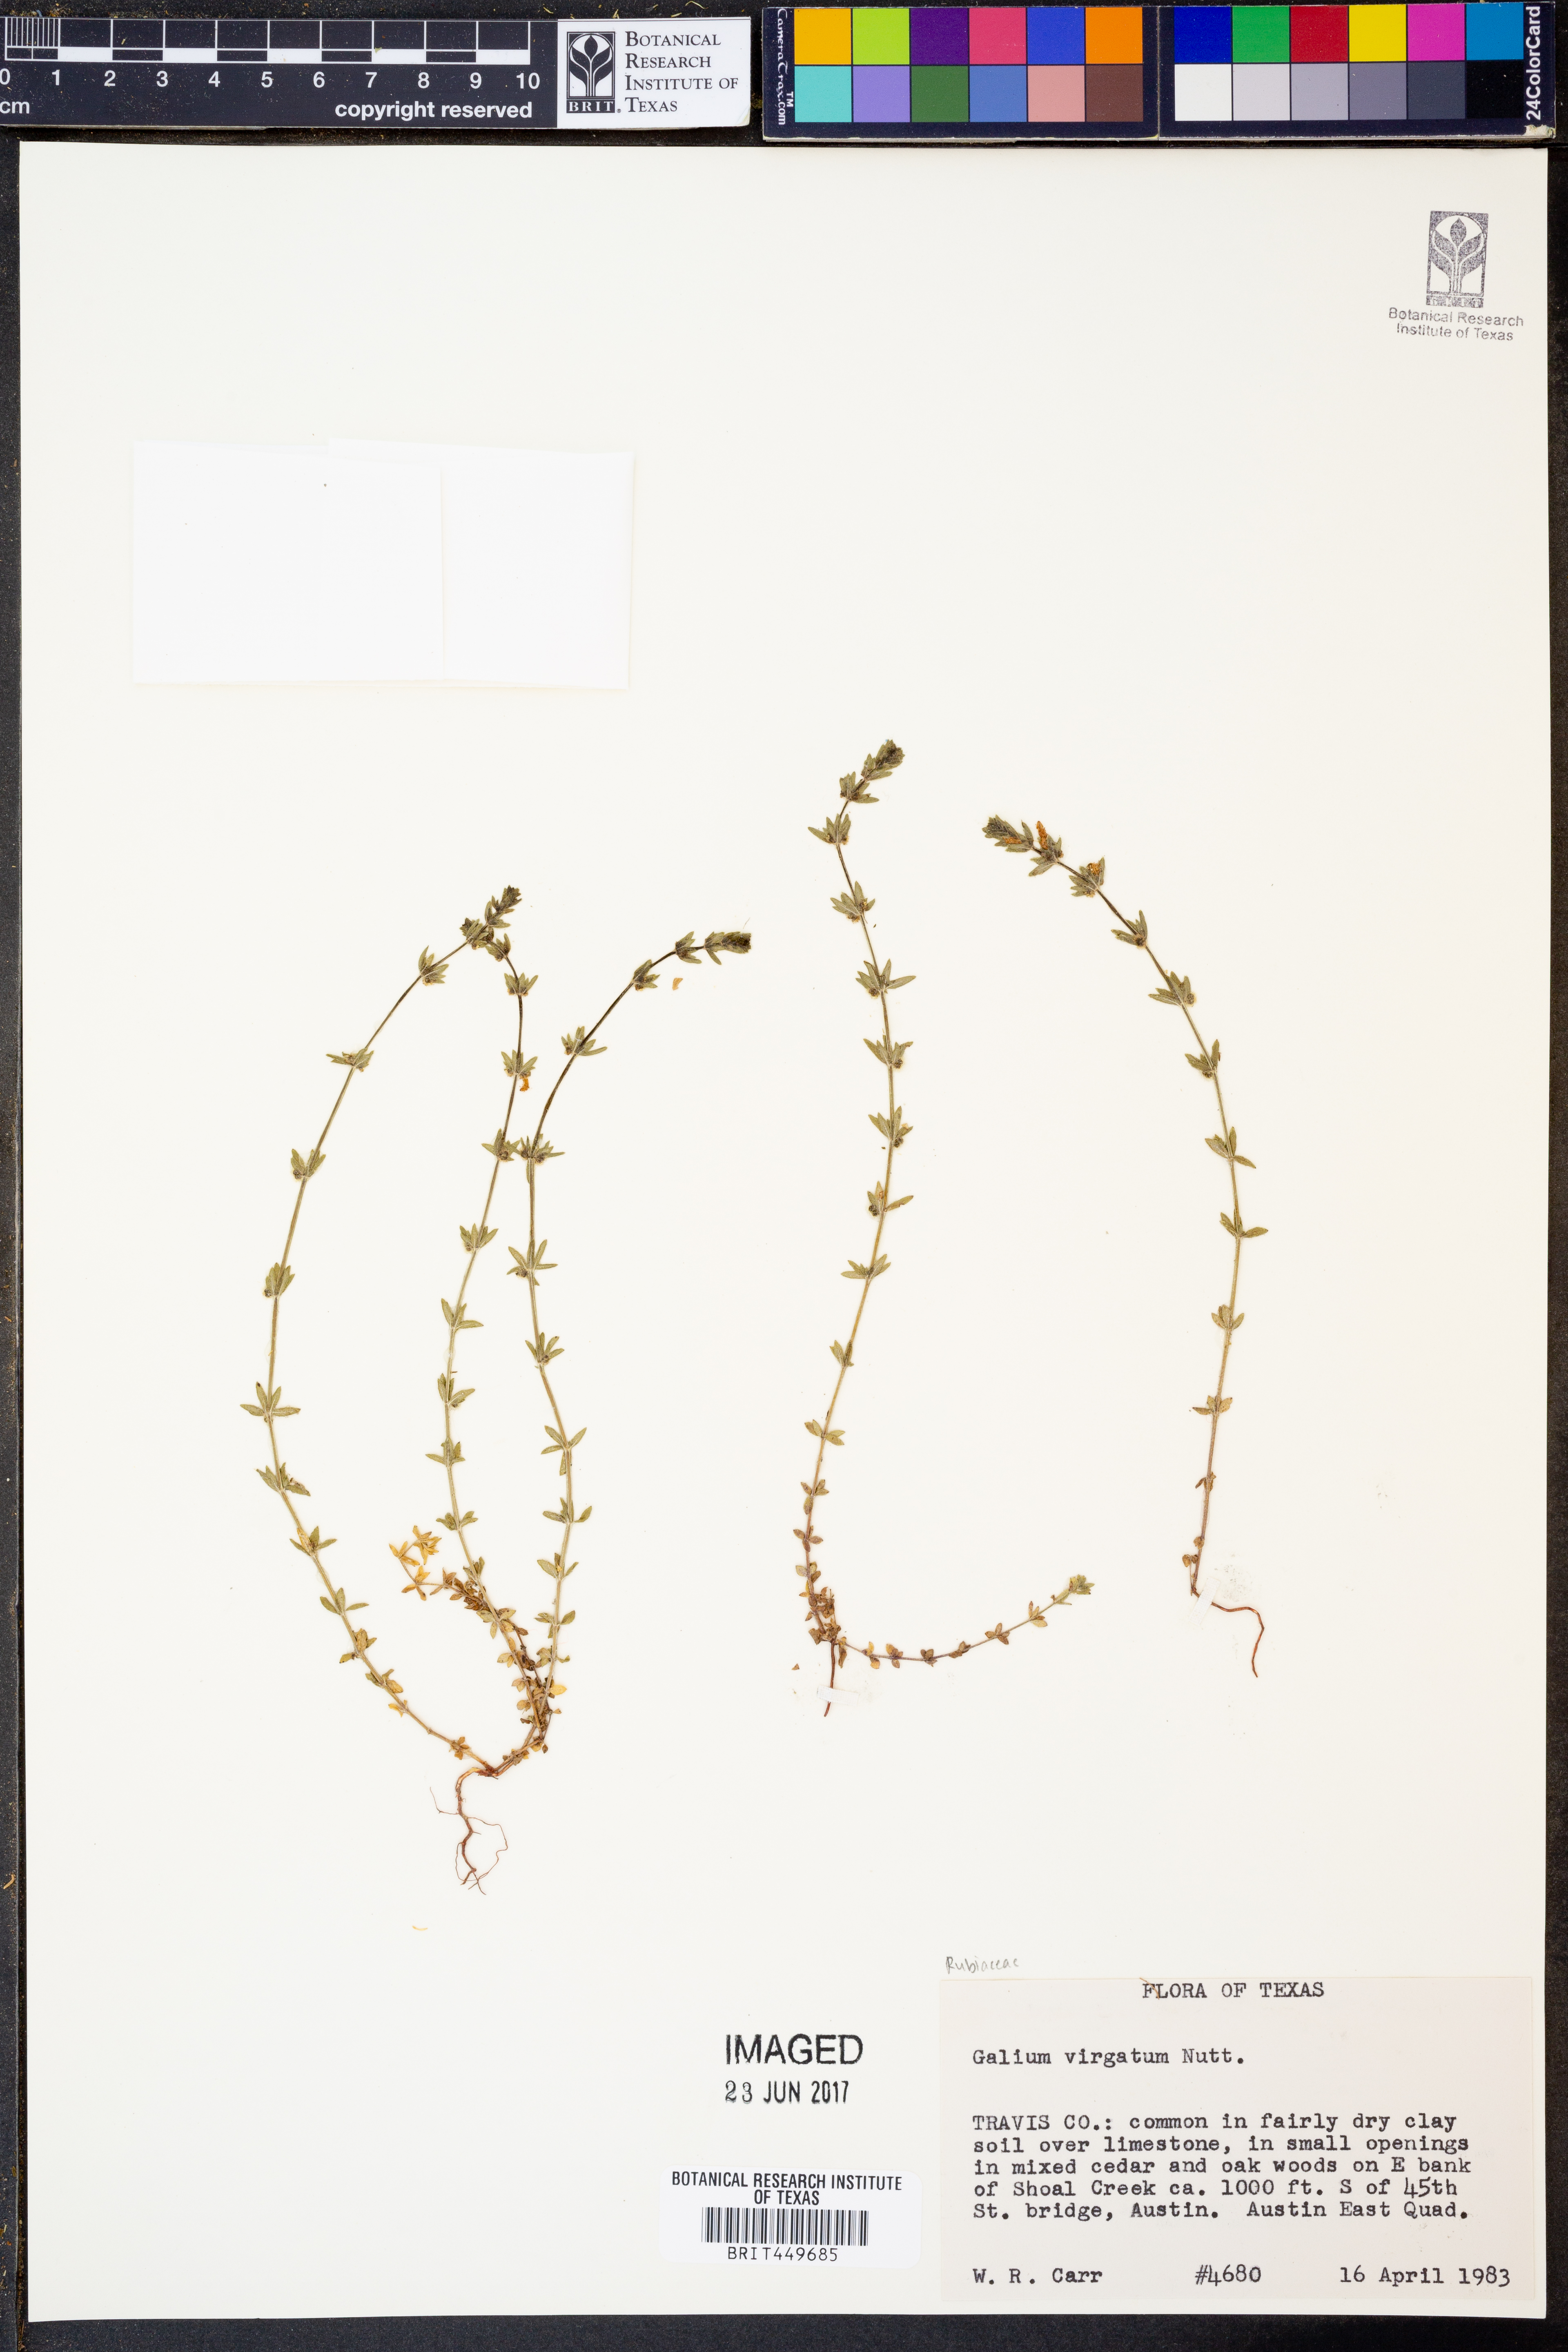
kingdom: Plantae
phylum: Tracheophyta
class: Magnoliopsida
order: Gentianales
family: Rubiaceae
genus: Galium
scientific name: Galium virgatum
